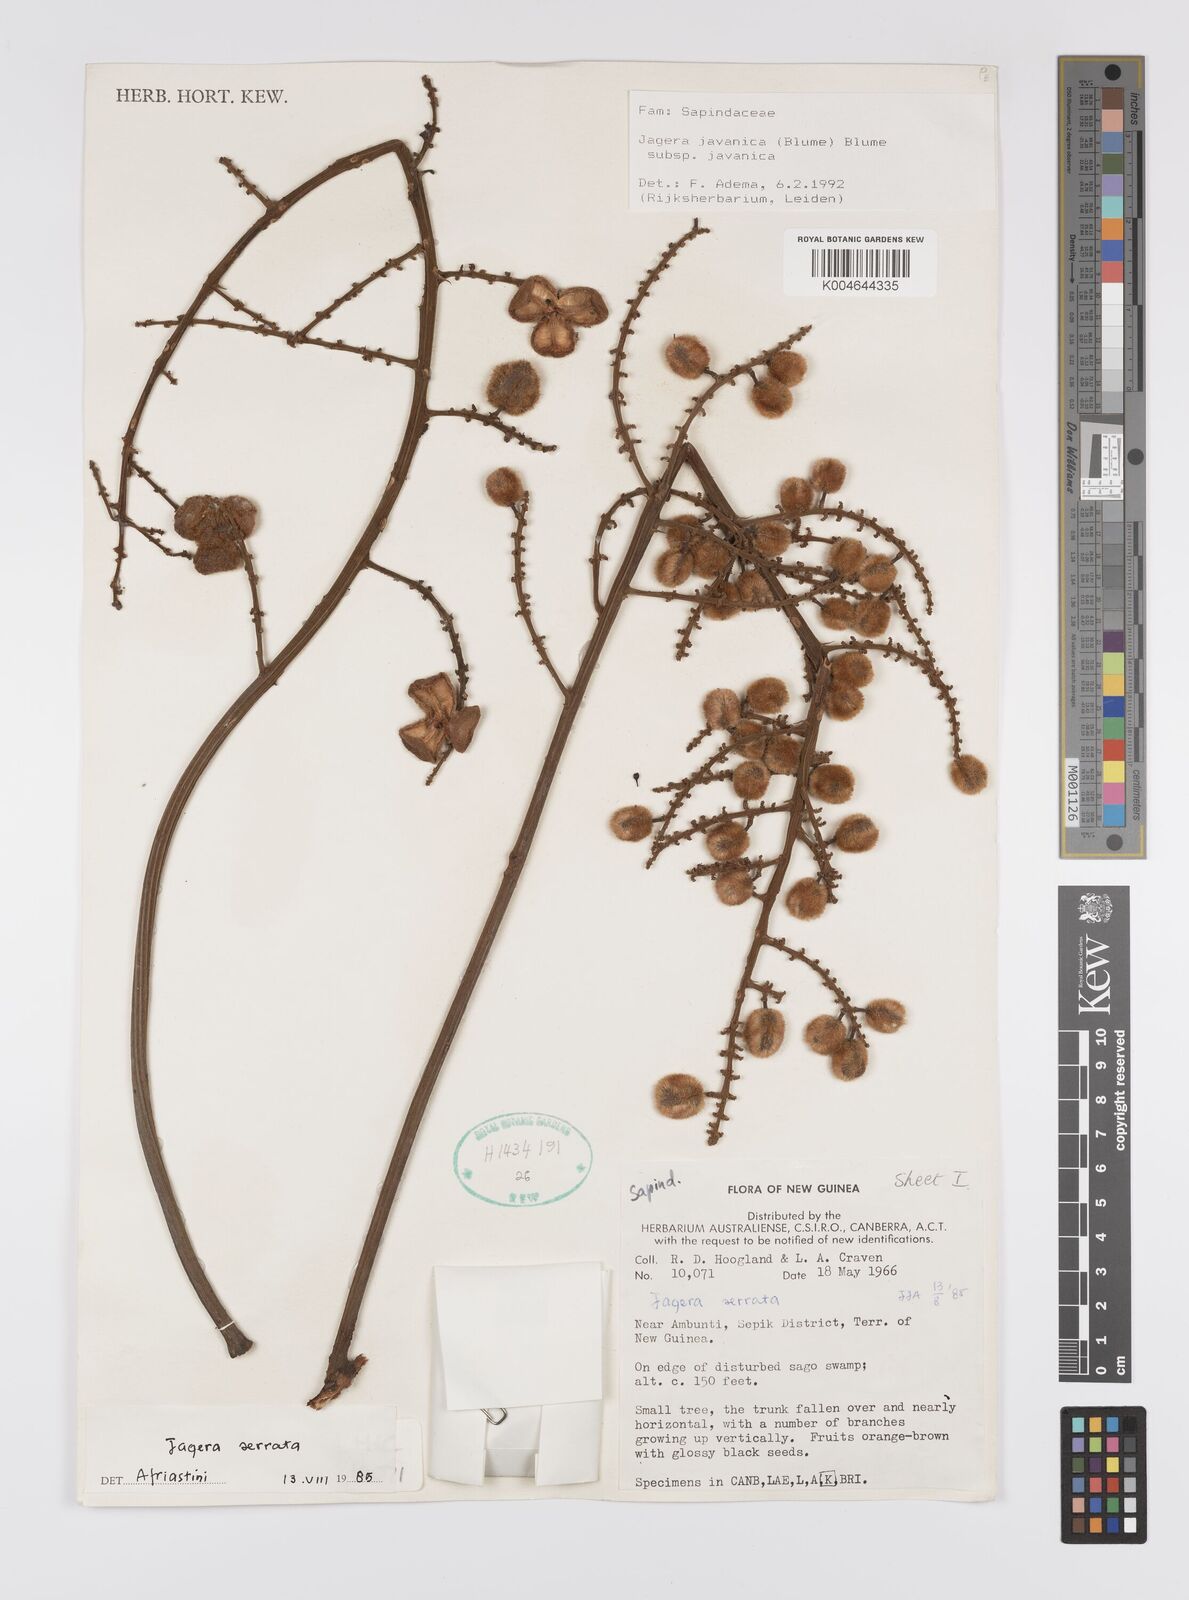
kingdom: Plantae
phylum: Tracheophyta
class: Magnoliopsida
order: Sapindales
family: Sapindaceae
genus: Jagera
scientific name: Jagera javanica
